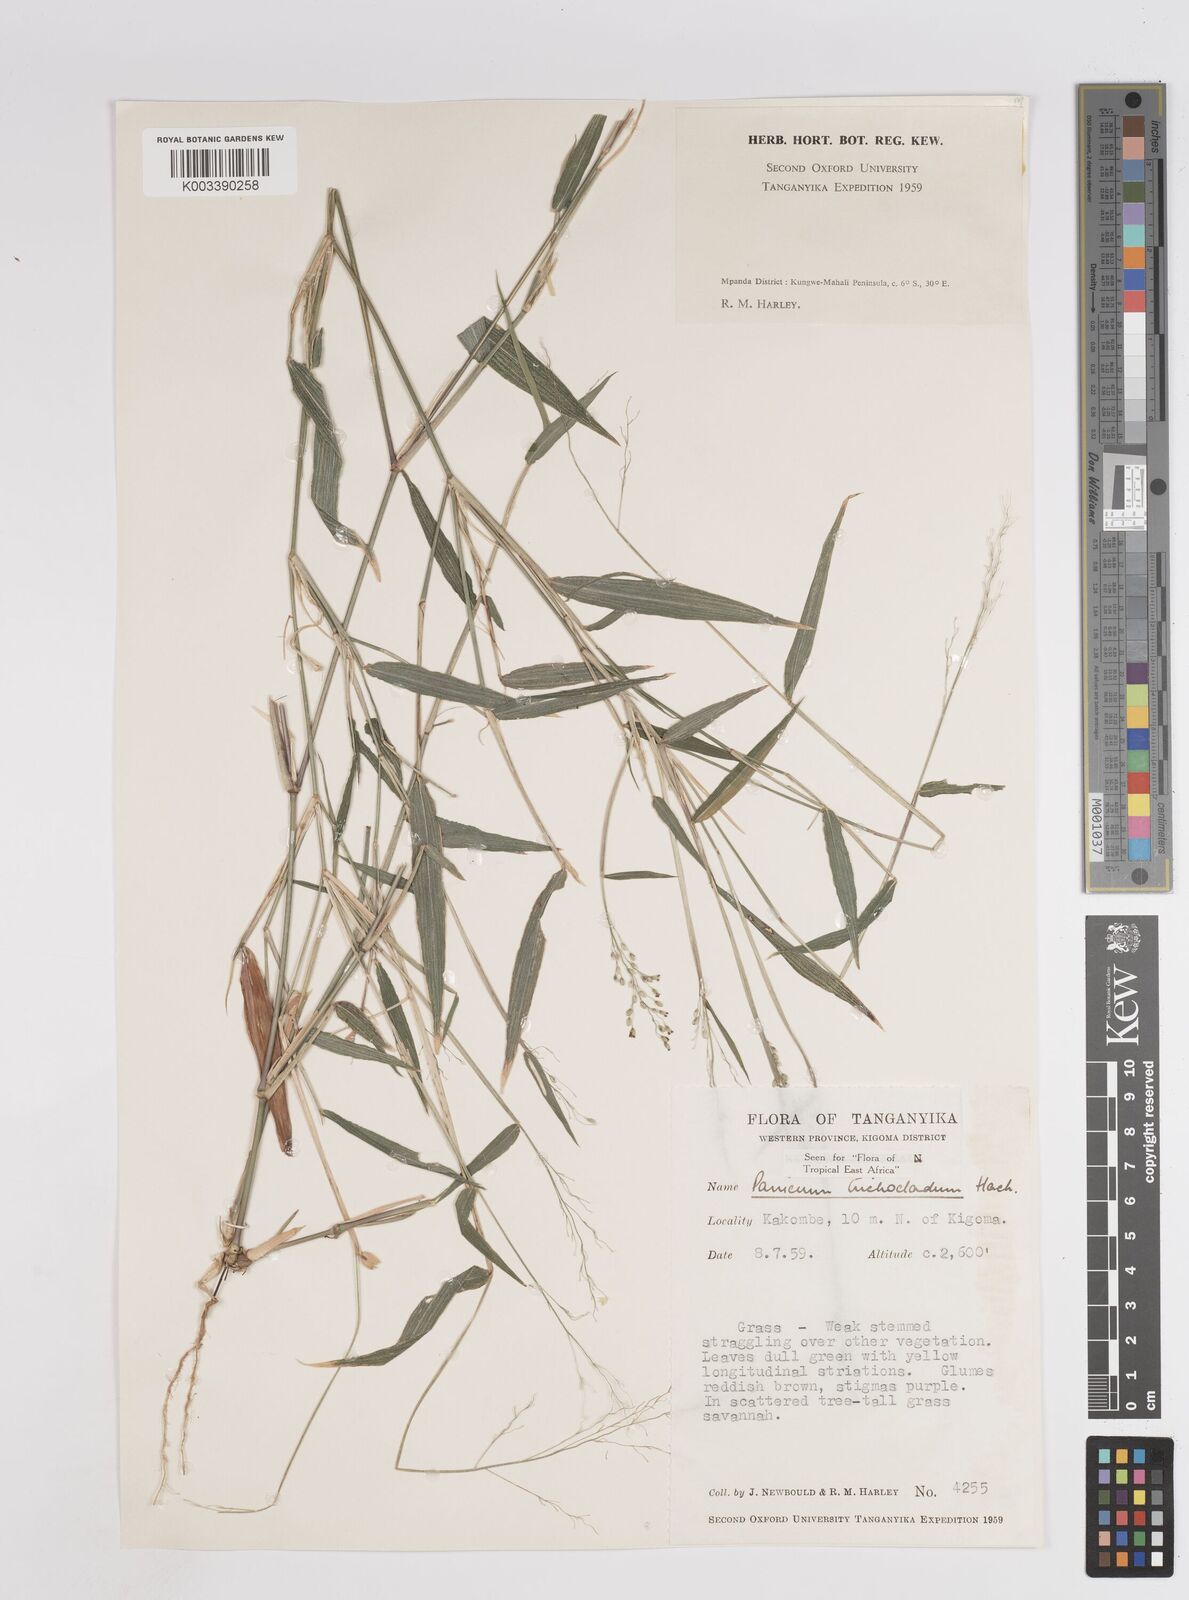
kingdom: Plantae
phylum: Tracheophyta
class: Liliopsida
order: Poales
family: Poaceae
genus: Panicum
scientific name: Panicum trichocladum
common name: Donkey grass
